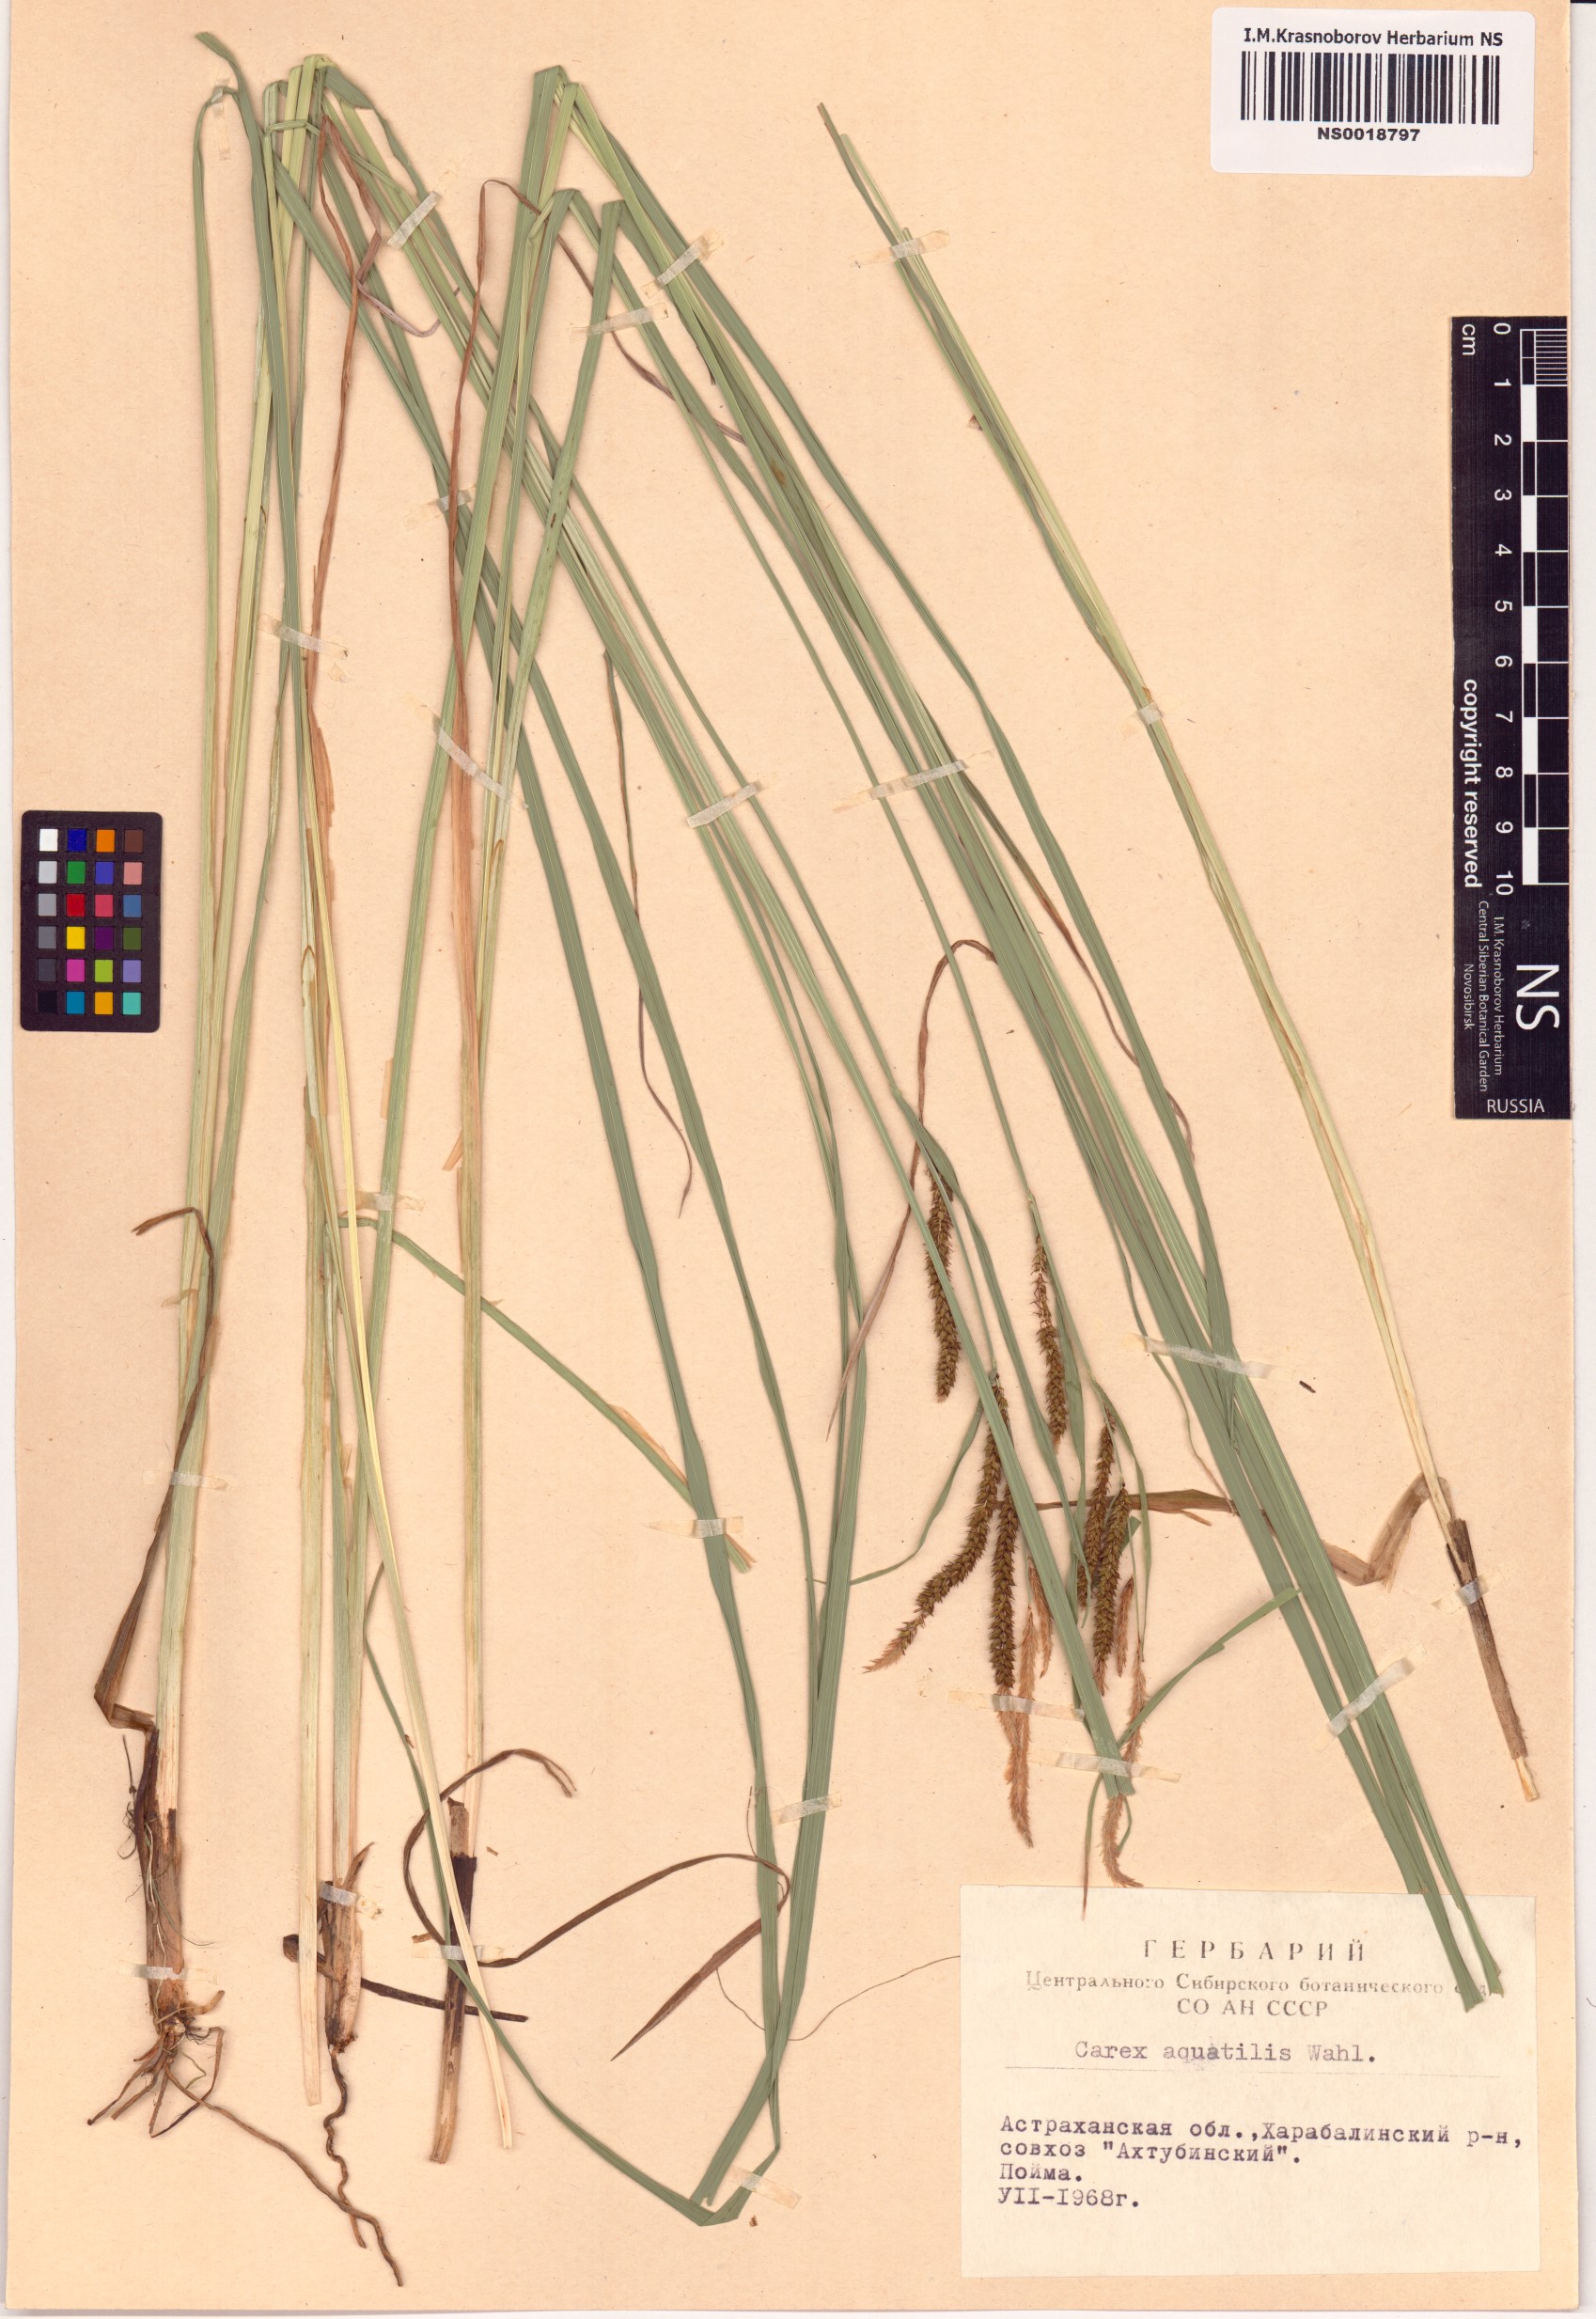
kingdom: Plantae
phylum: Tracheophyta
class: Liliopsida
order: Poales
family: Cyperaceae
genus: Carex
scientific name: Carex aquatilis
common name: Water sedge
